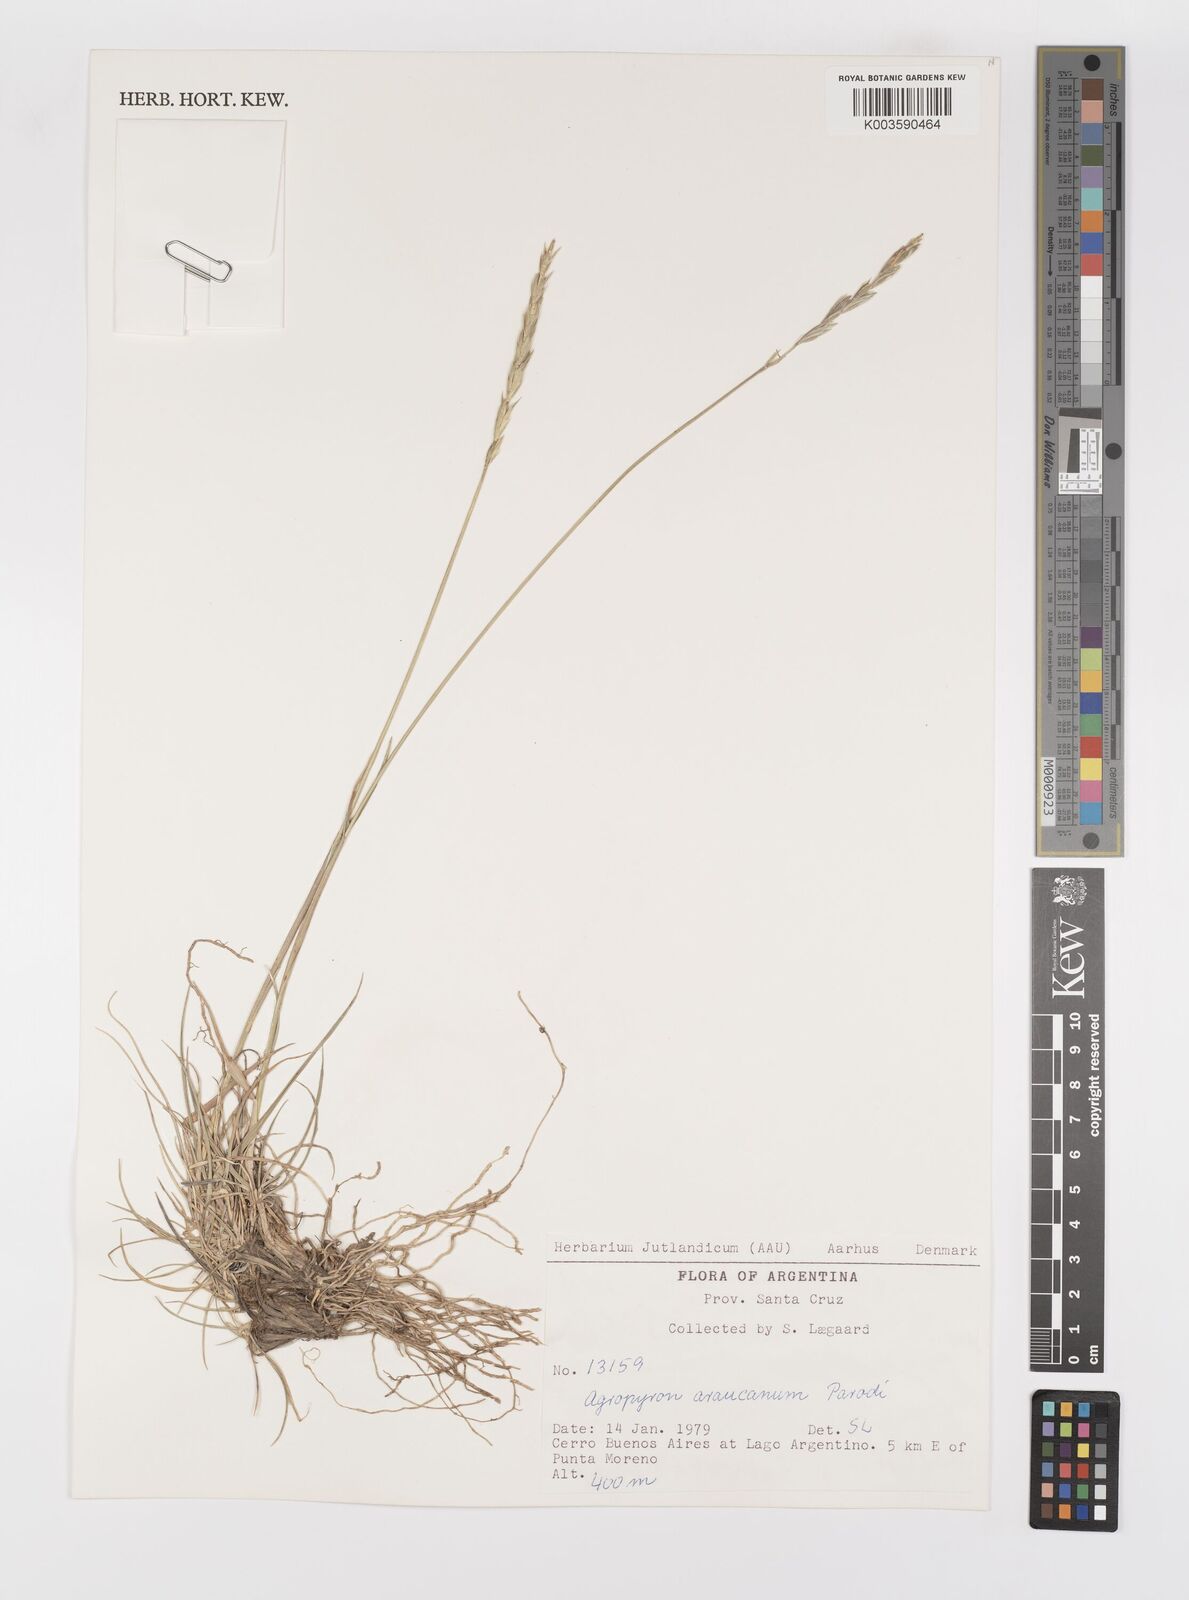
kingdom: Plantae
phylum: Tracheophyta
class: Liliopsida
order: Poales
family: Poaceae
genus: Elymus
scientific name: Elymus magellanicus
